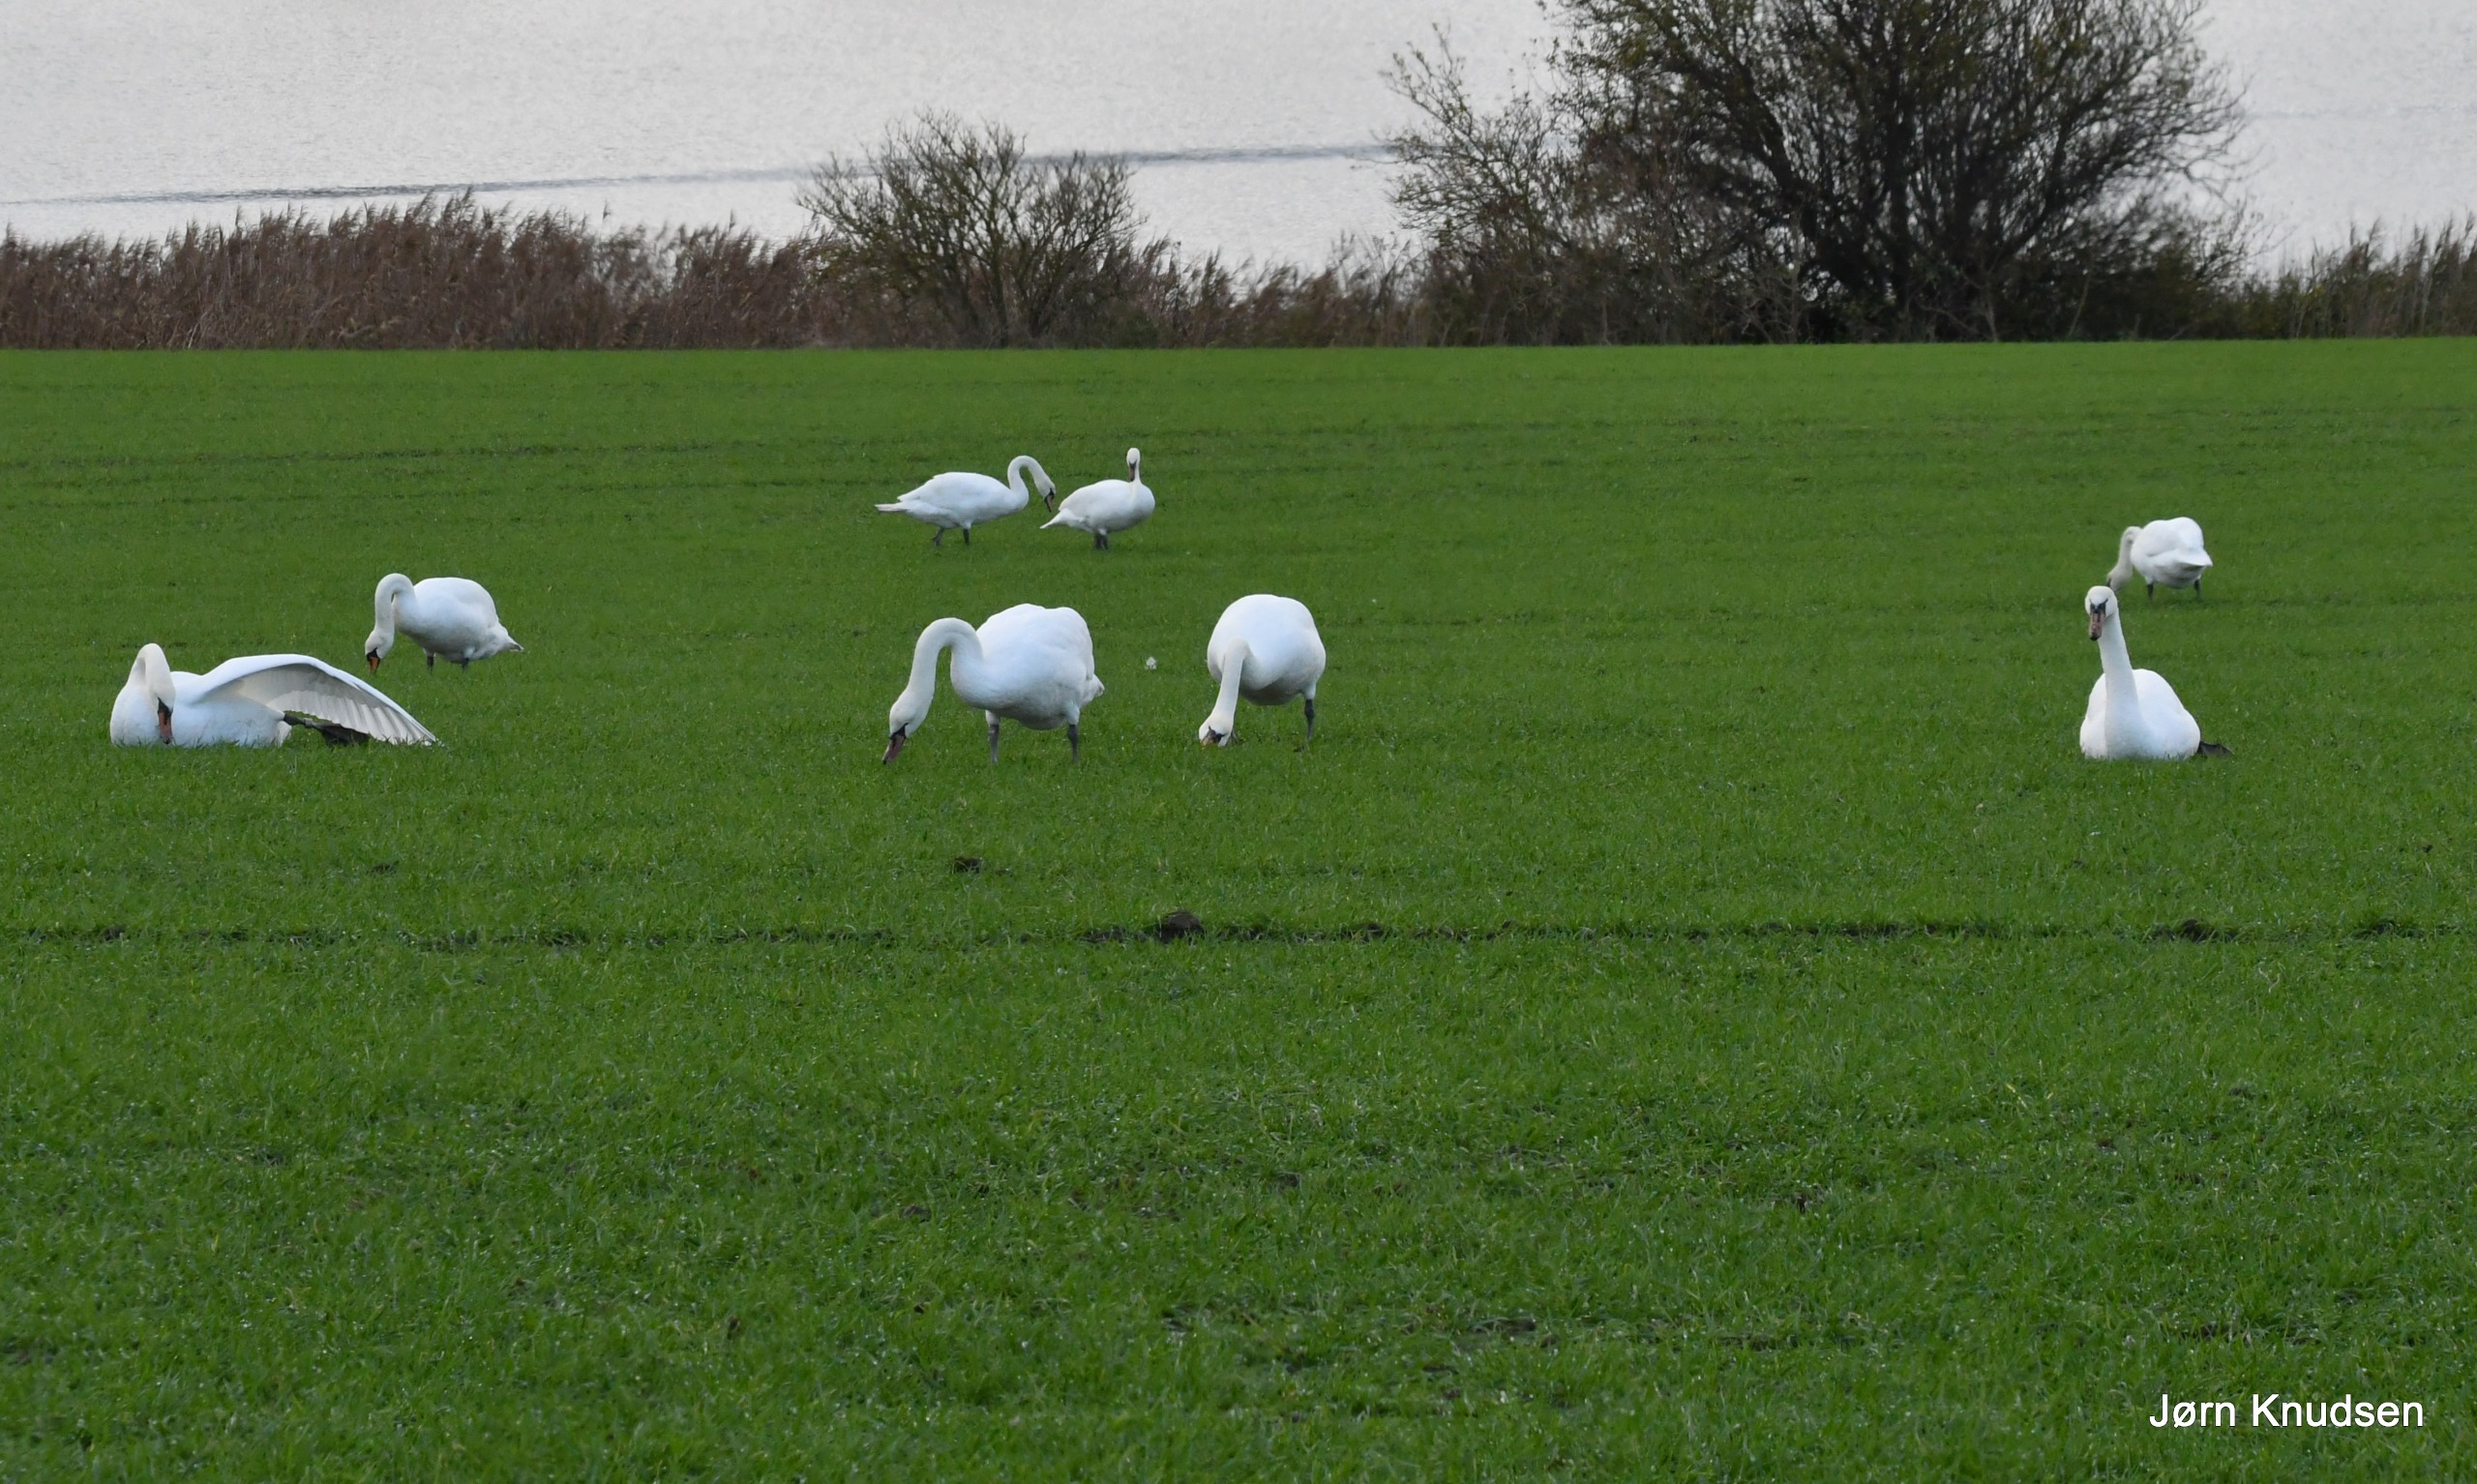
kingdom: Animalia
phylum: Chordata
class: Aves
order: Anseriformes
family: Anatidae
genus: Cygnus
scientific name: Cygnus olor
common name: Knopsvane
